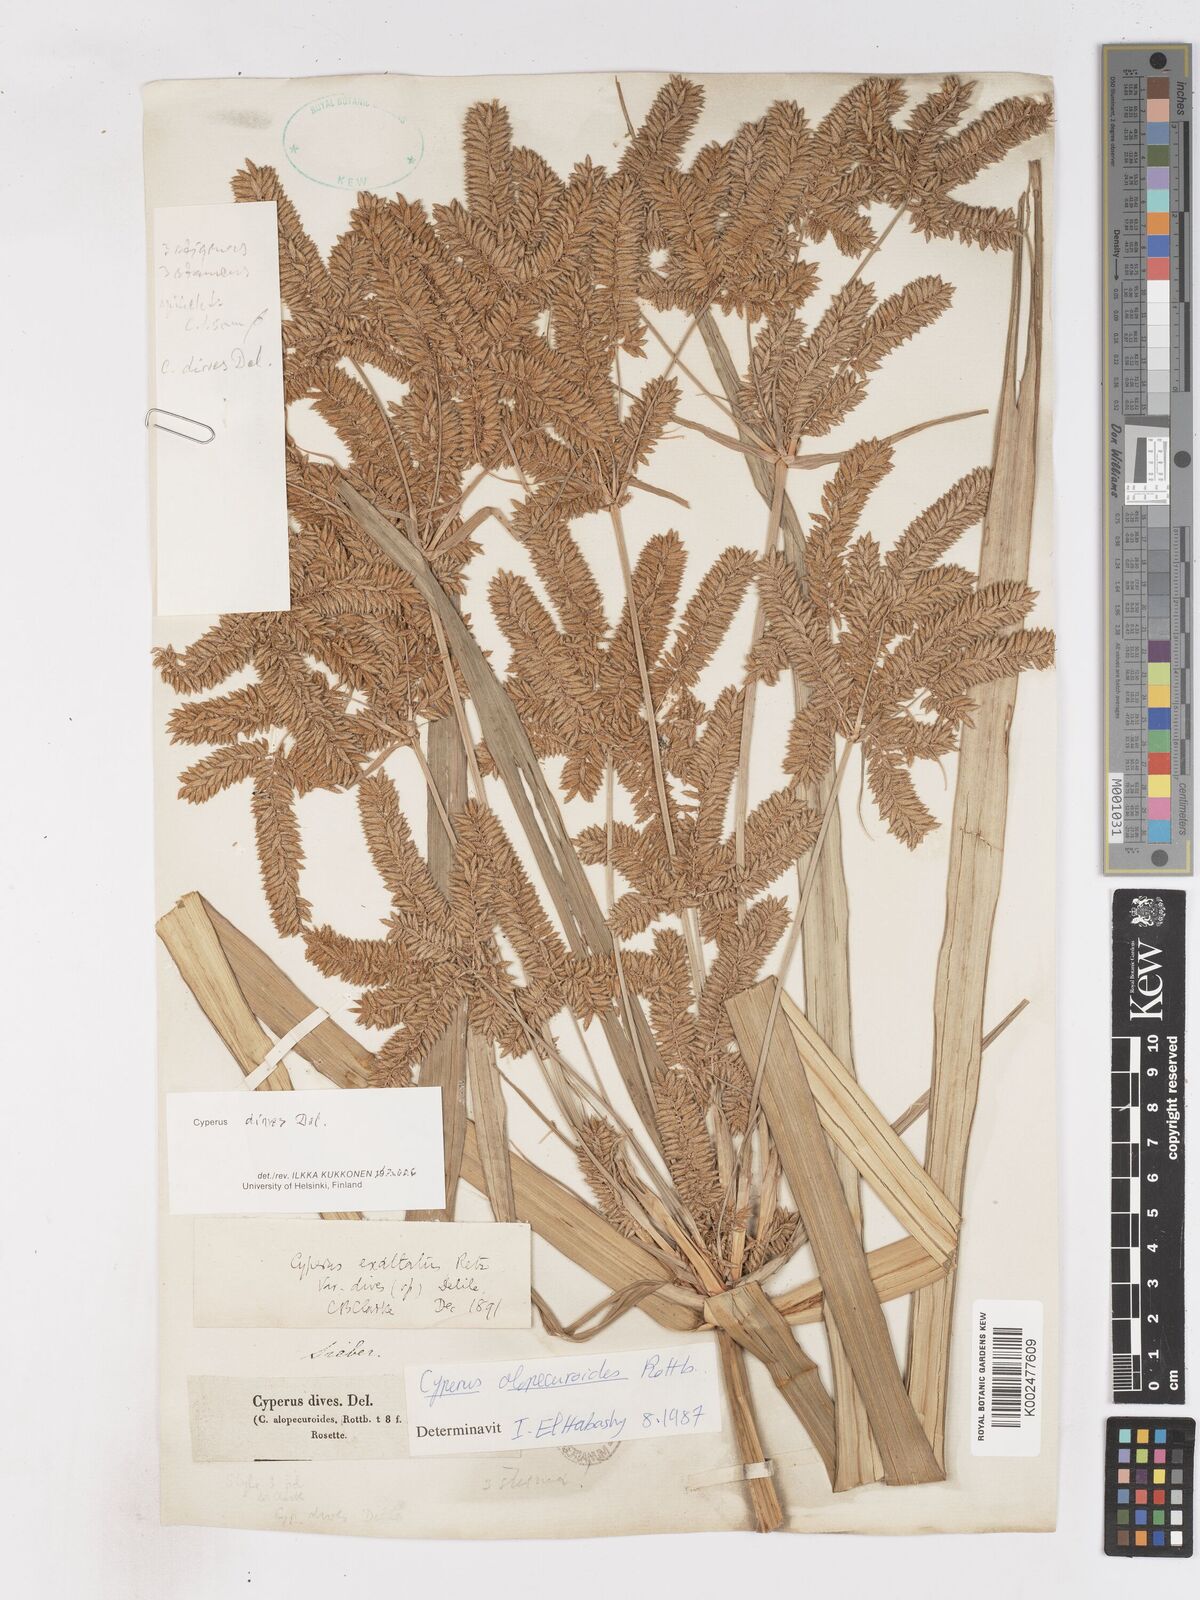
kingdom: Plantae
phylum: Tracheophyta
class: Liliopsida
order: Poales
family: Cyperaceae
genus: Cyperus
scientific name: Cyperus dives
